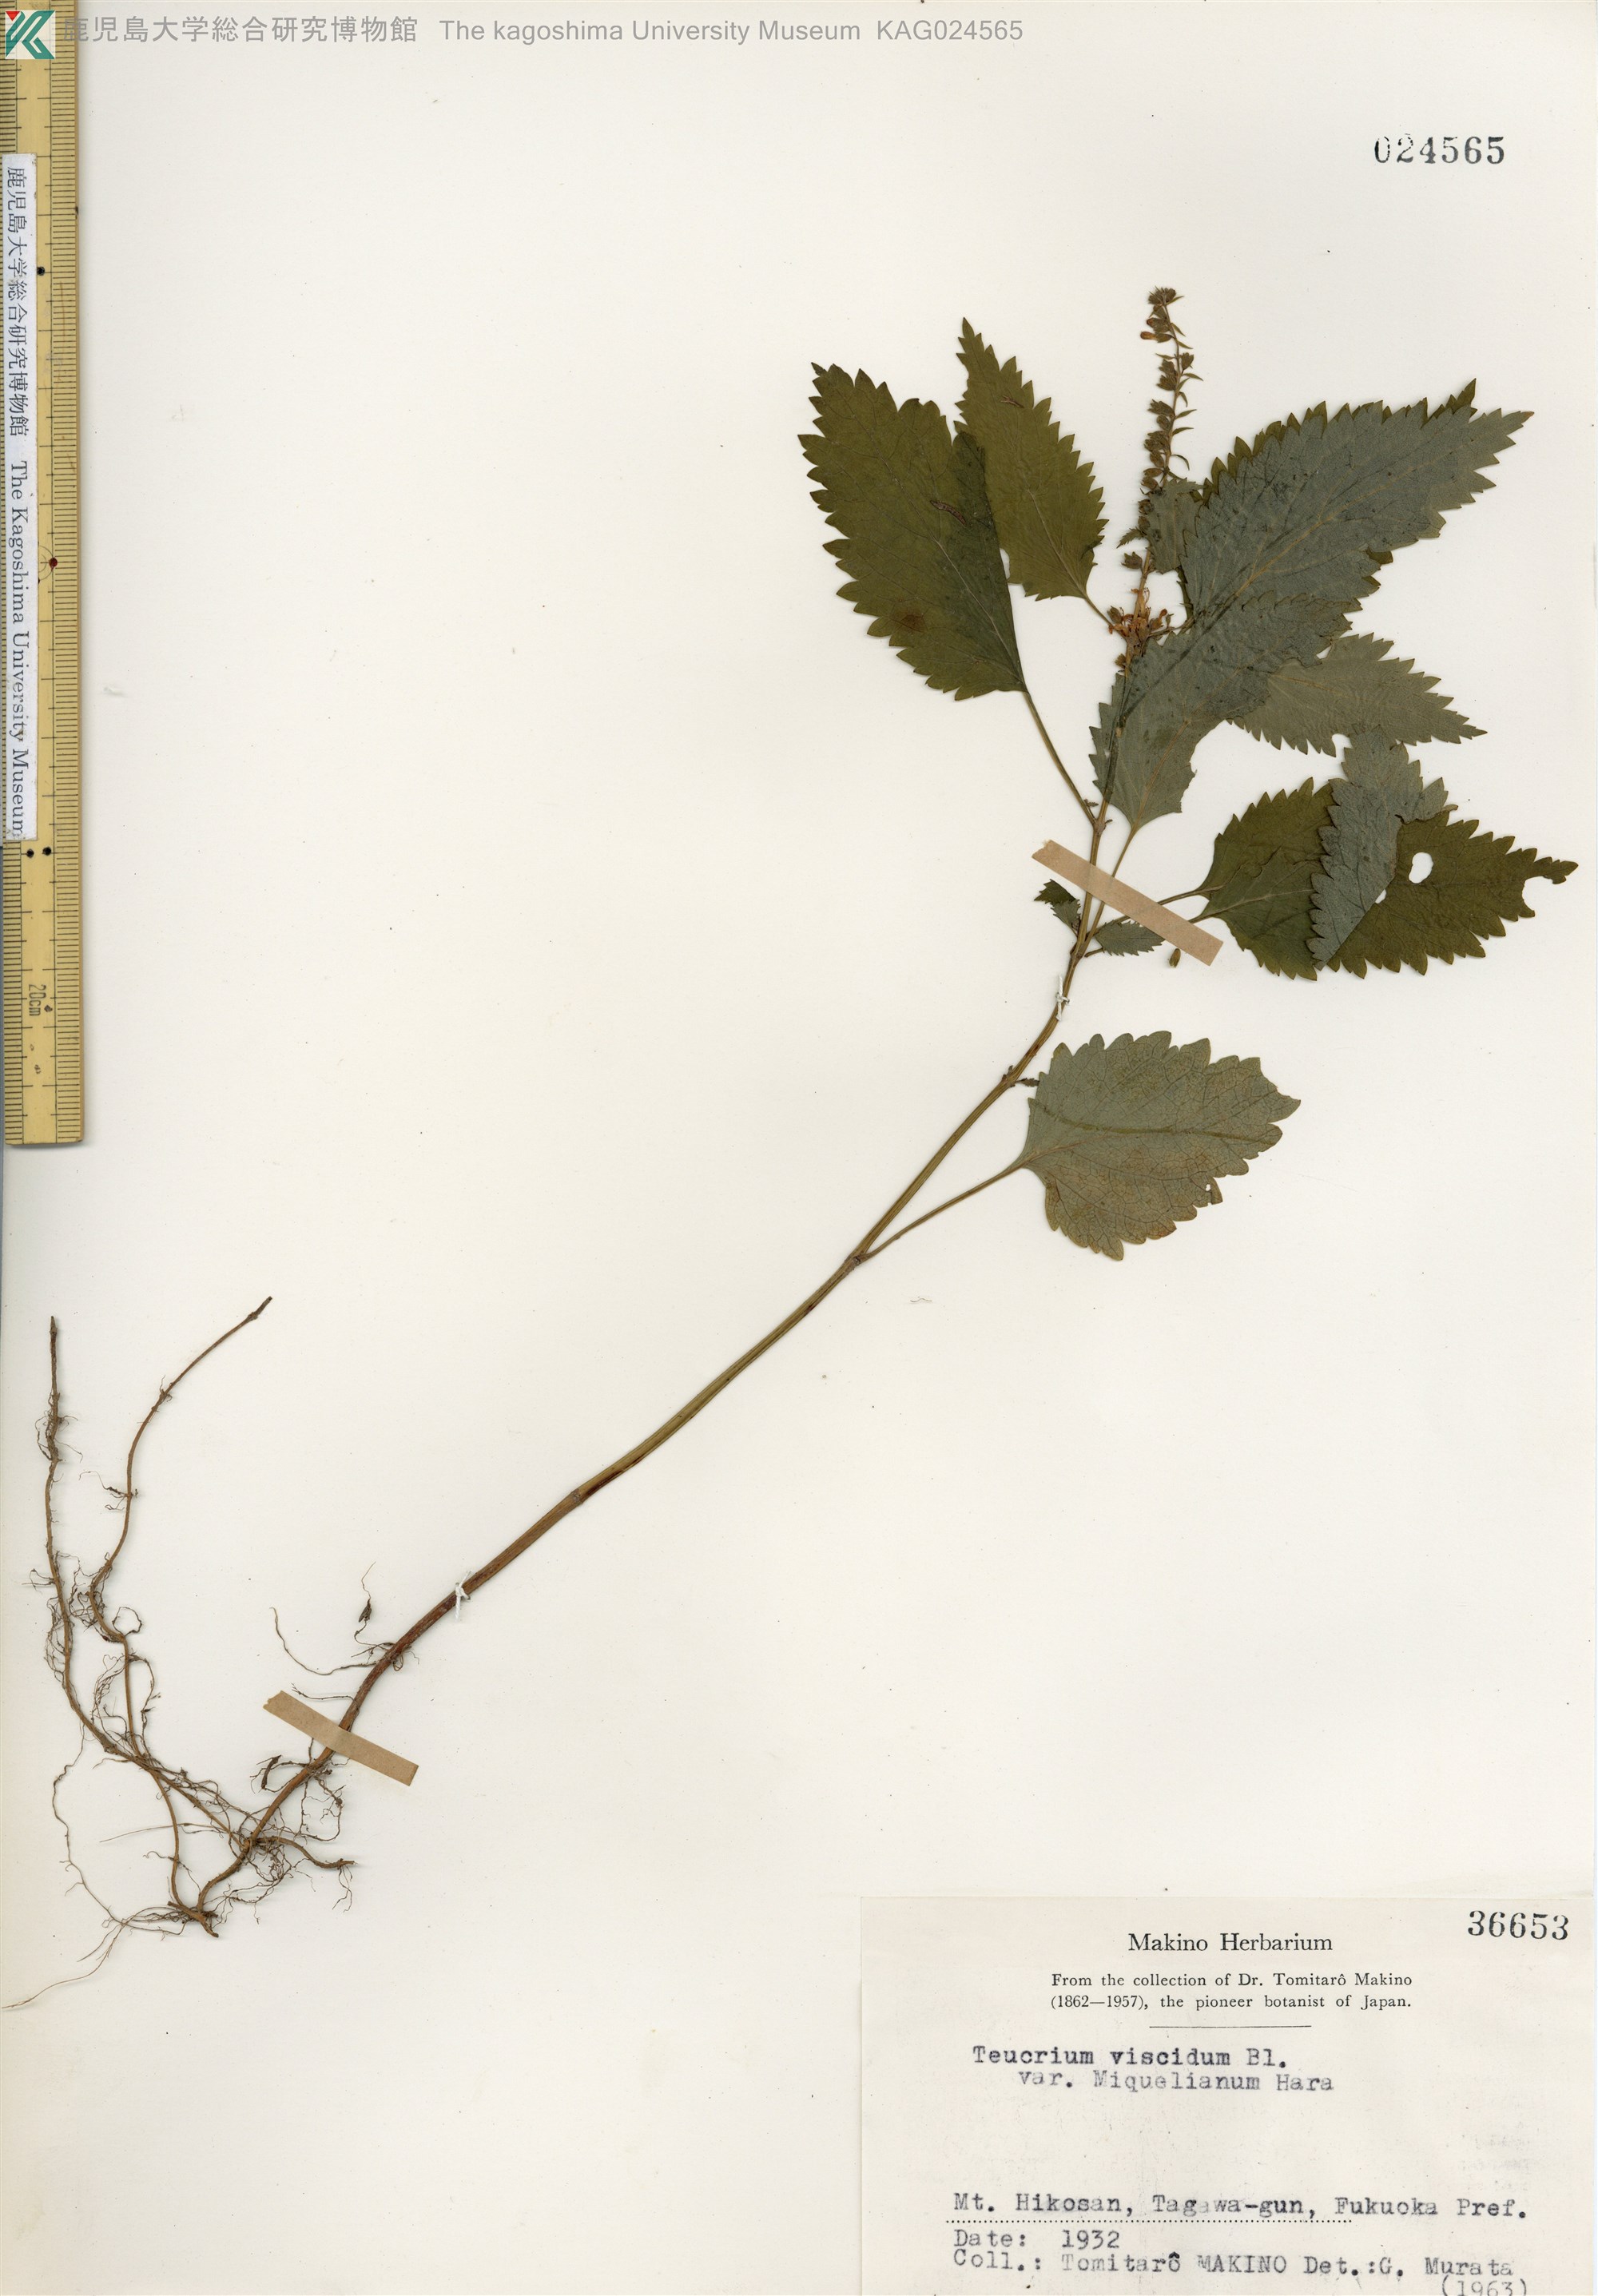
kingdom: Plantae
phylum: Tracheophyta
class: Magnoliopsida
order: Lamiales
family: Lamiaceae
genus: Teucrium
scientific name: Teucrium viscidum
